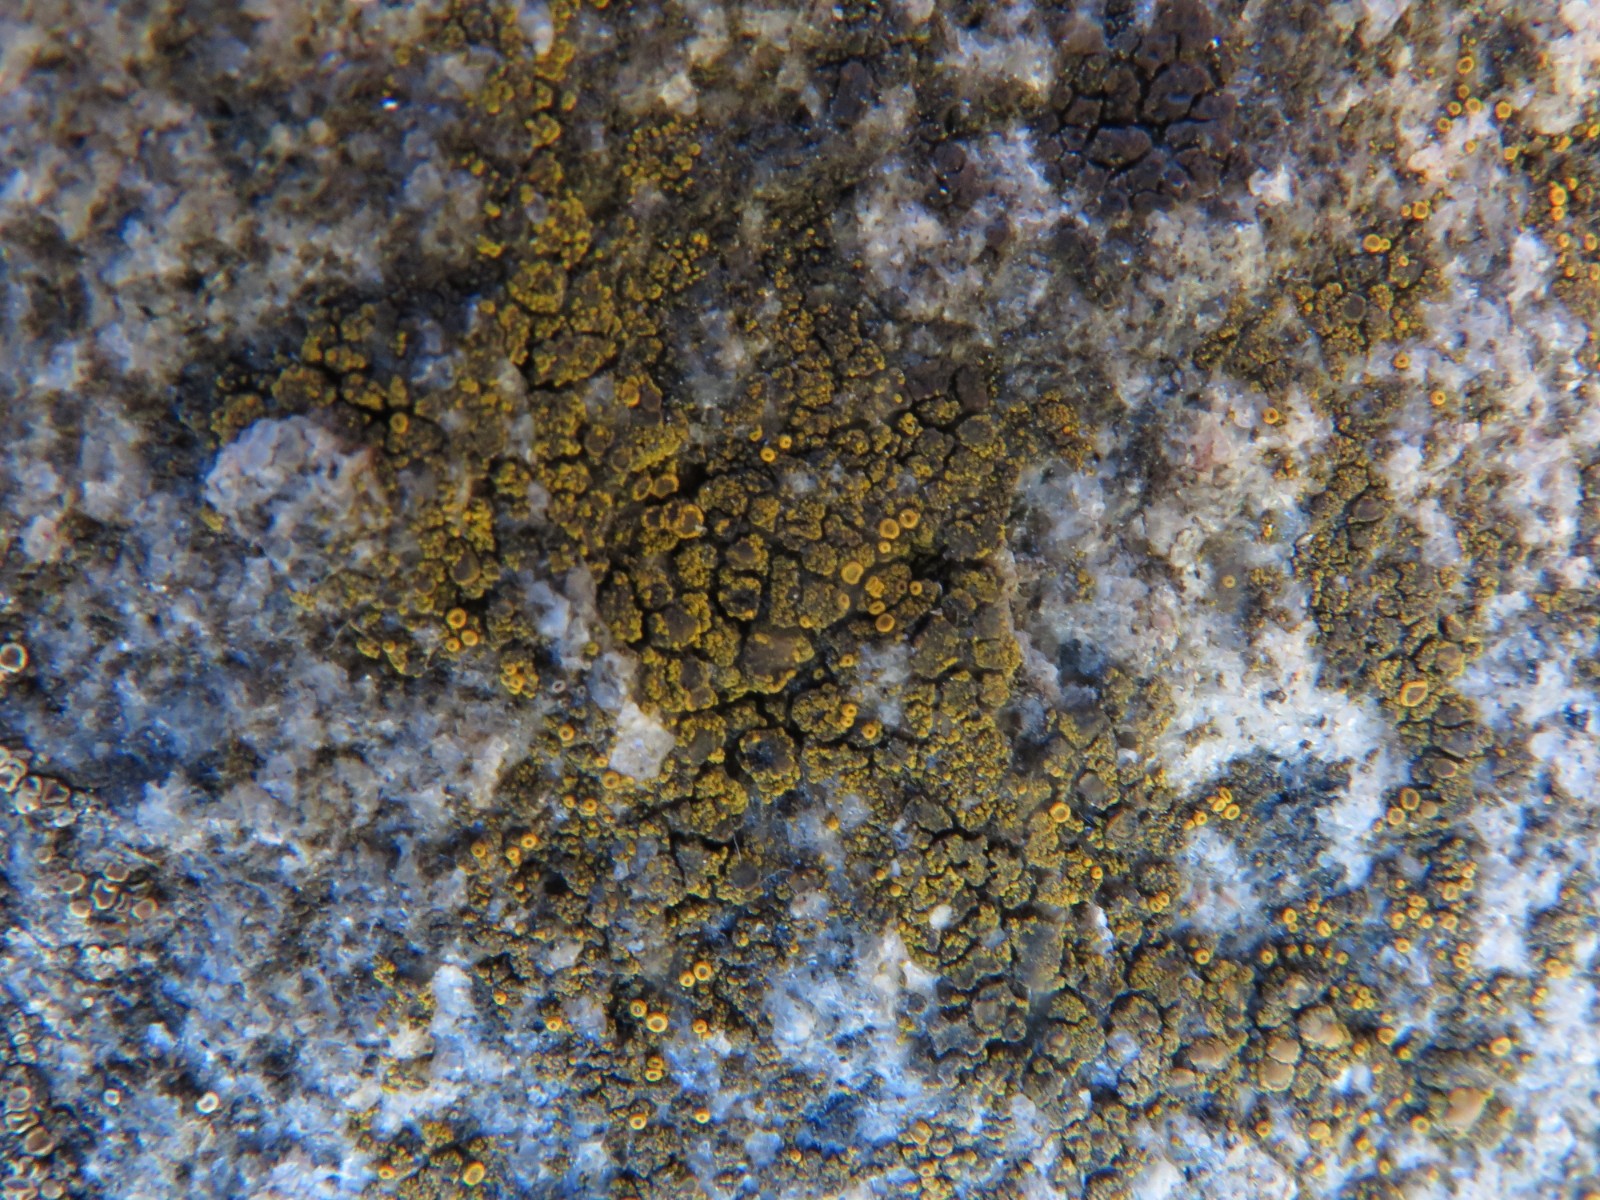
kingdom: Fungi
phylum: Ascomycota
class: Candelariomycetes
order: Candelariales
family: Candelariaceae
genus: Candelariella
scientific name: Candelariella vitellina
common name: almindelig æggeblommelav
